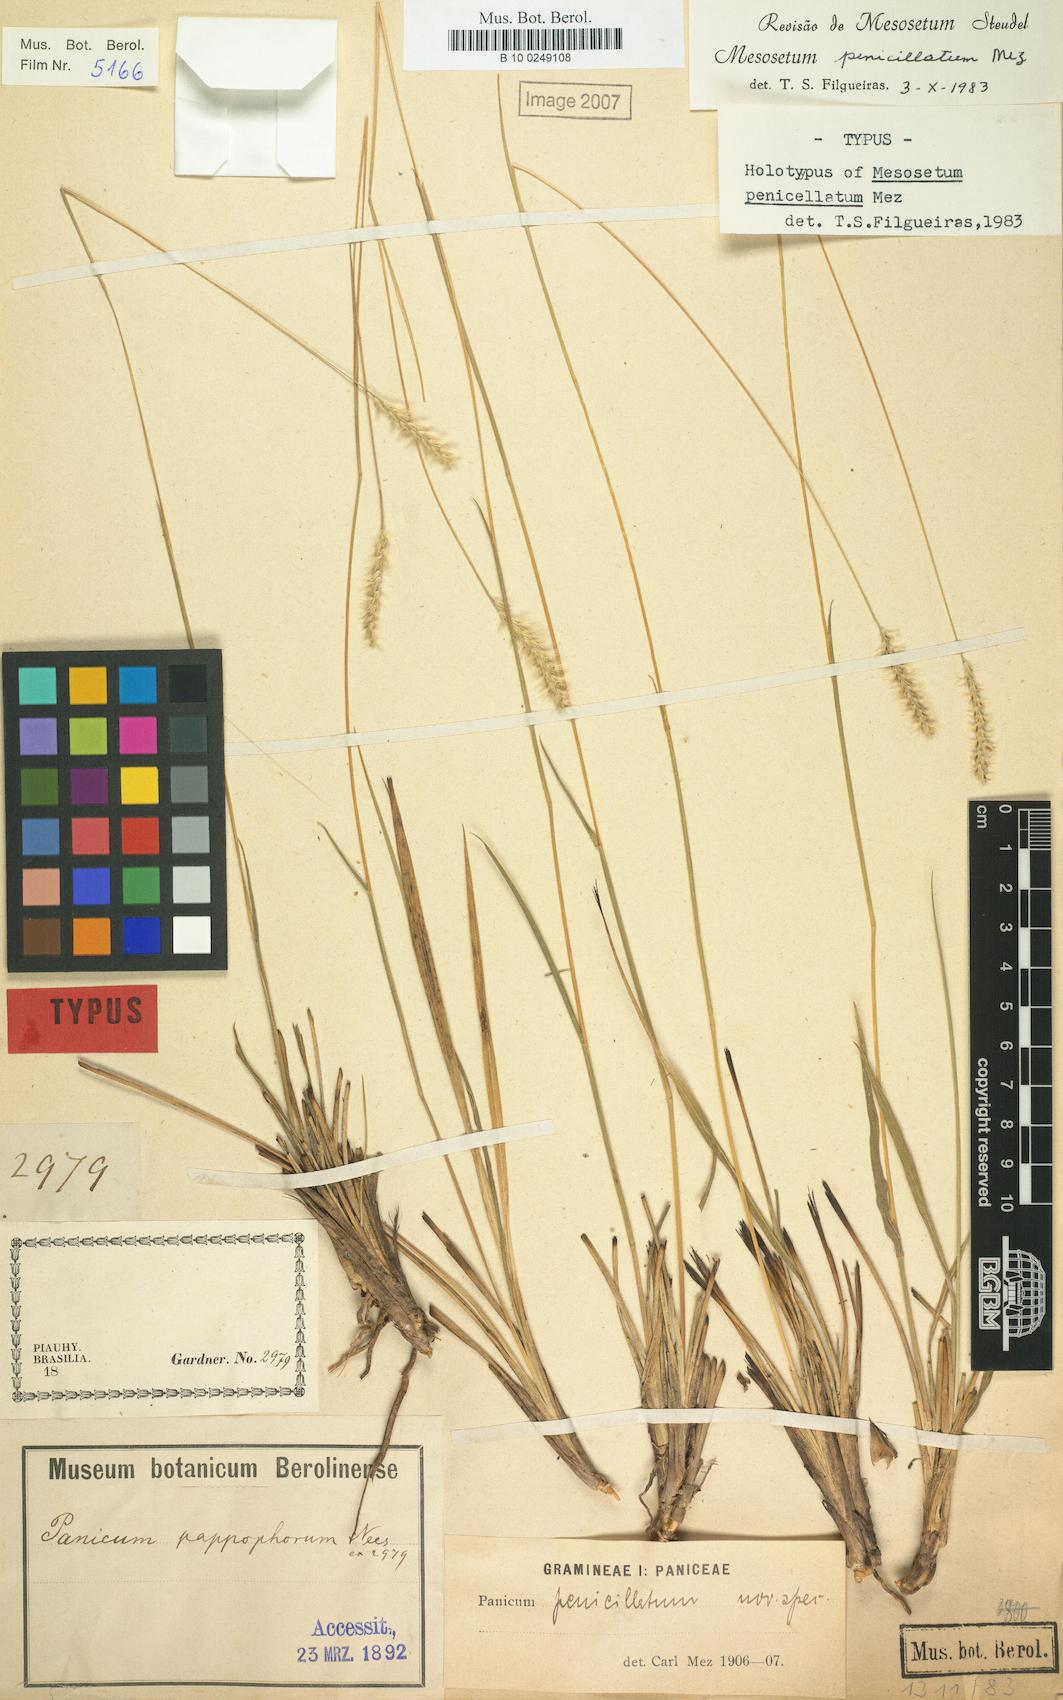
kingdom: Plantae
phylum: Tracheophyta
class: Liliopsida
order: Poales
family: Poaceae
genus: Mesosetum
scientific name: Mesosetum penicillatum
